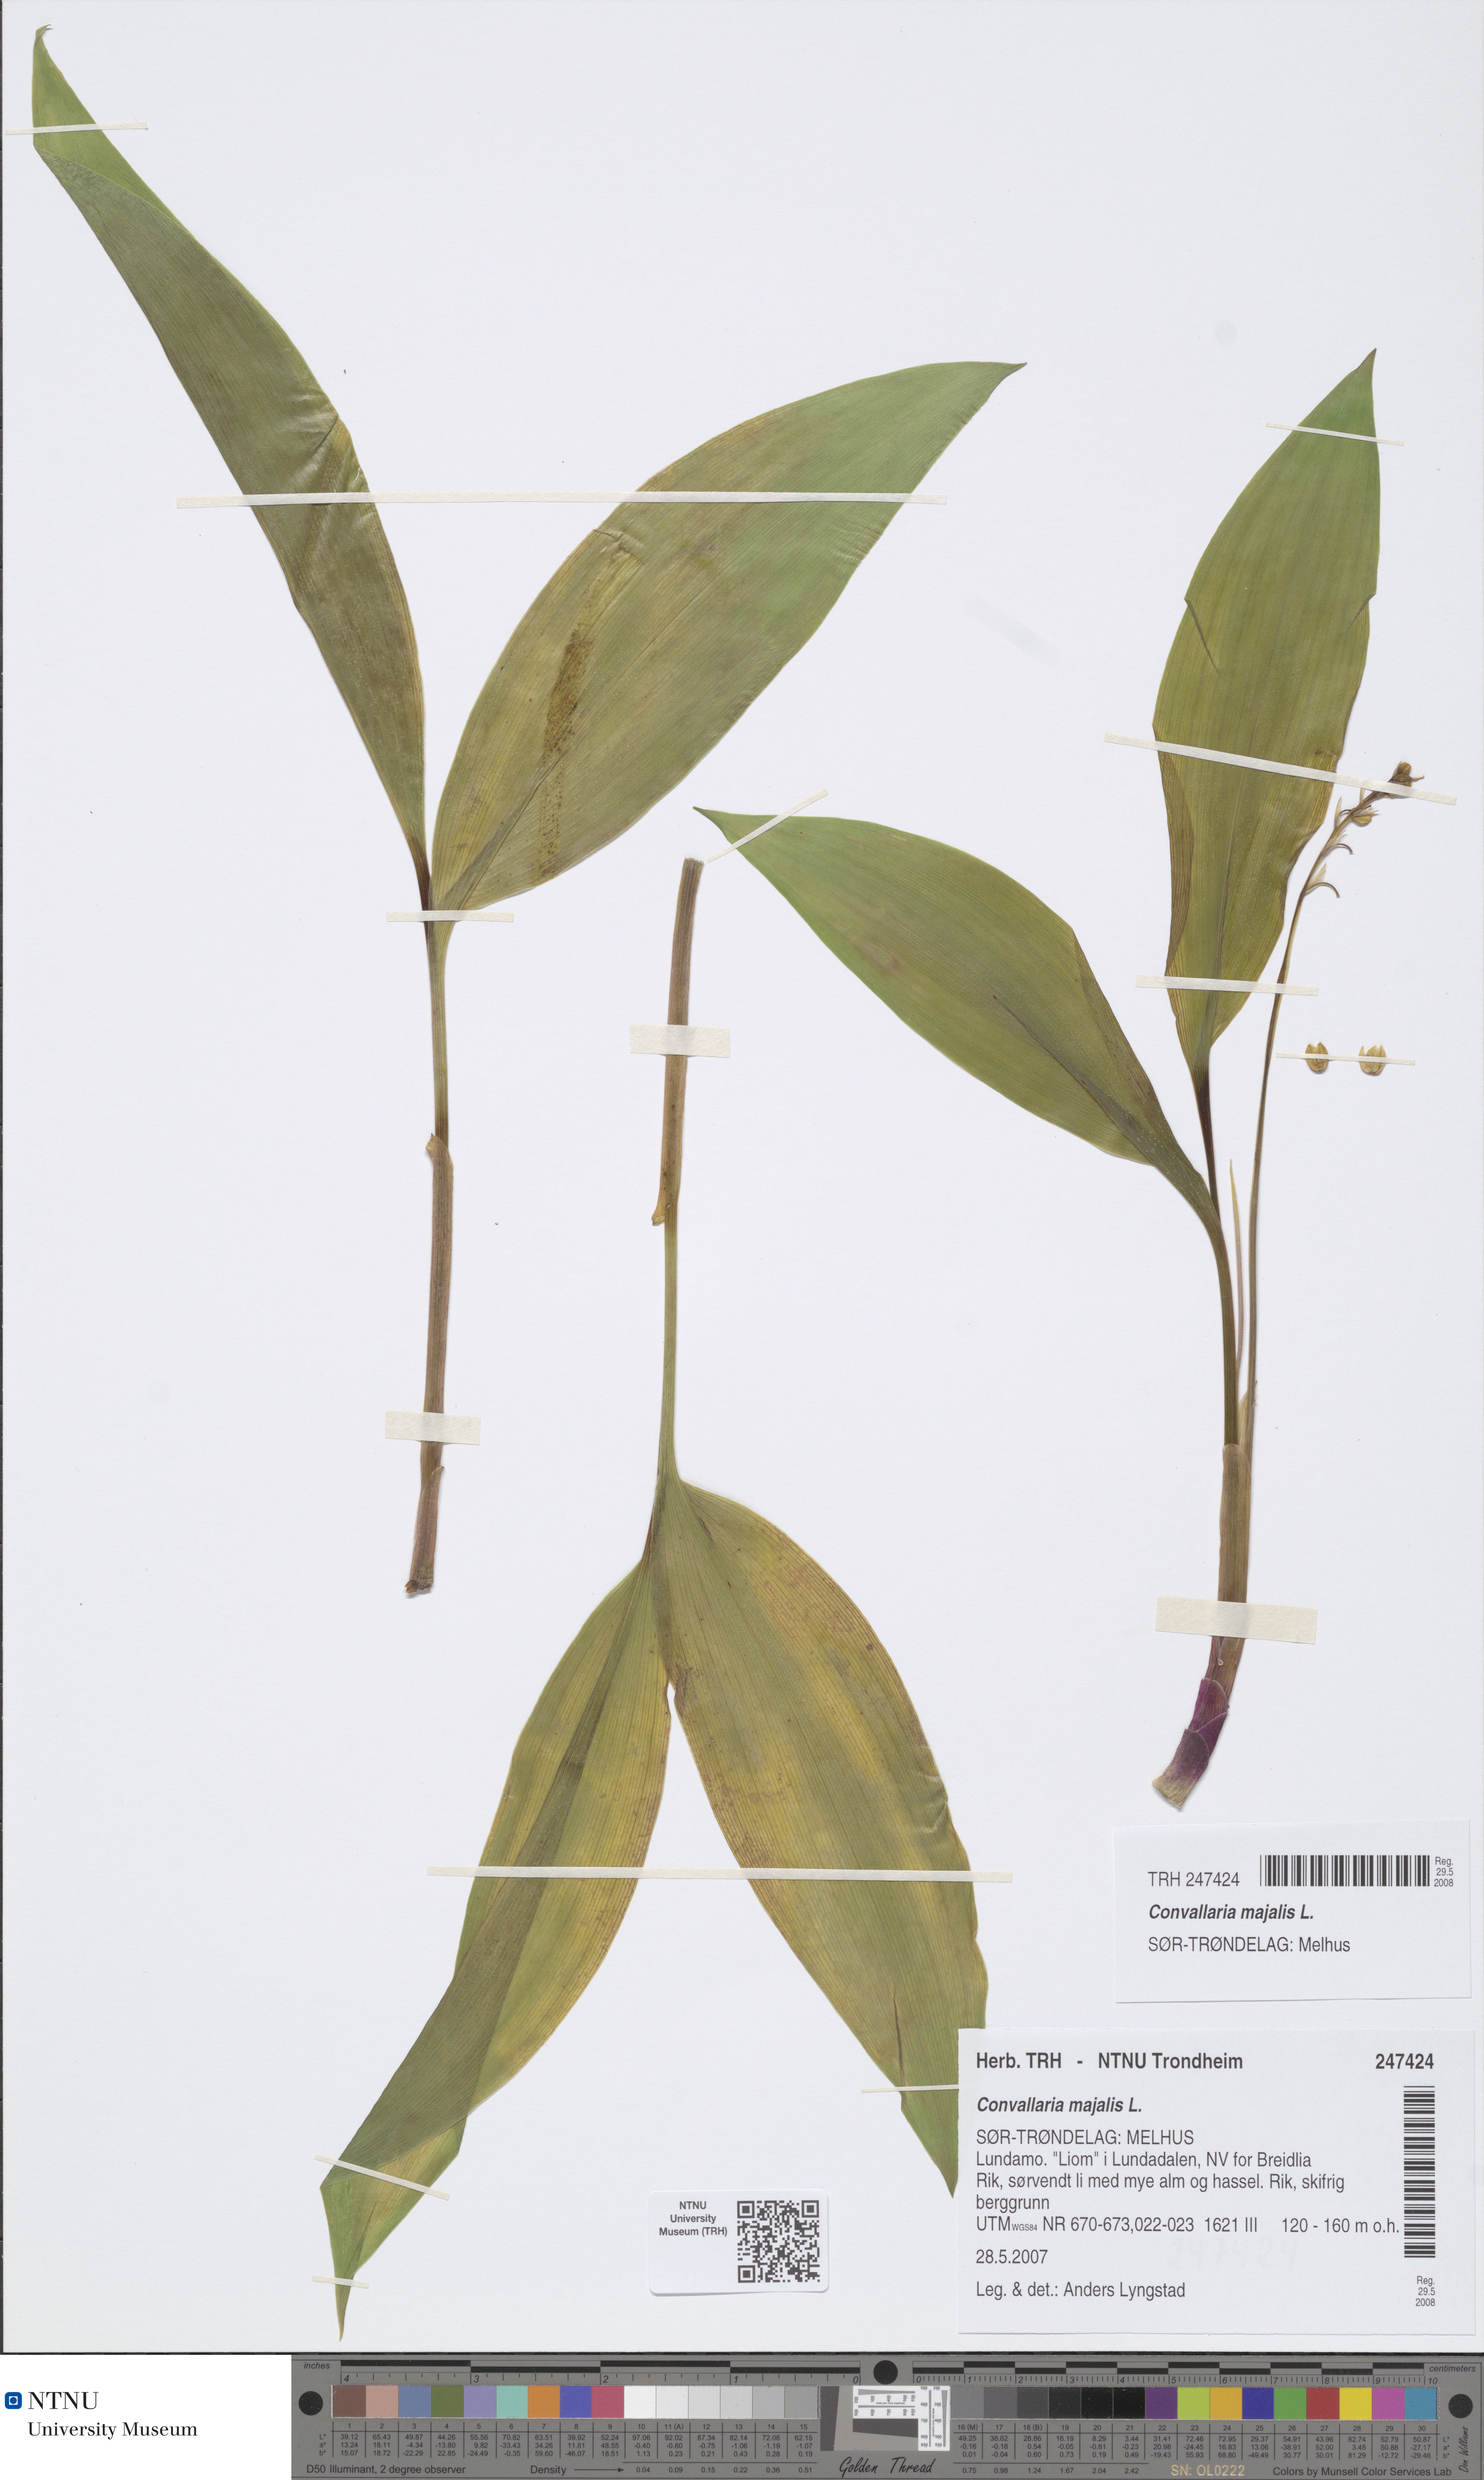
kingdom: Plantae
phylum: Tracheophyta
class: Liliopsida
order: Asparagales
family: Asparagaceae
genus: Convallaria
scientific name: Convallaria majalis
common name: Lily-of-the-valley
